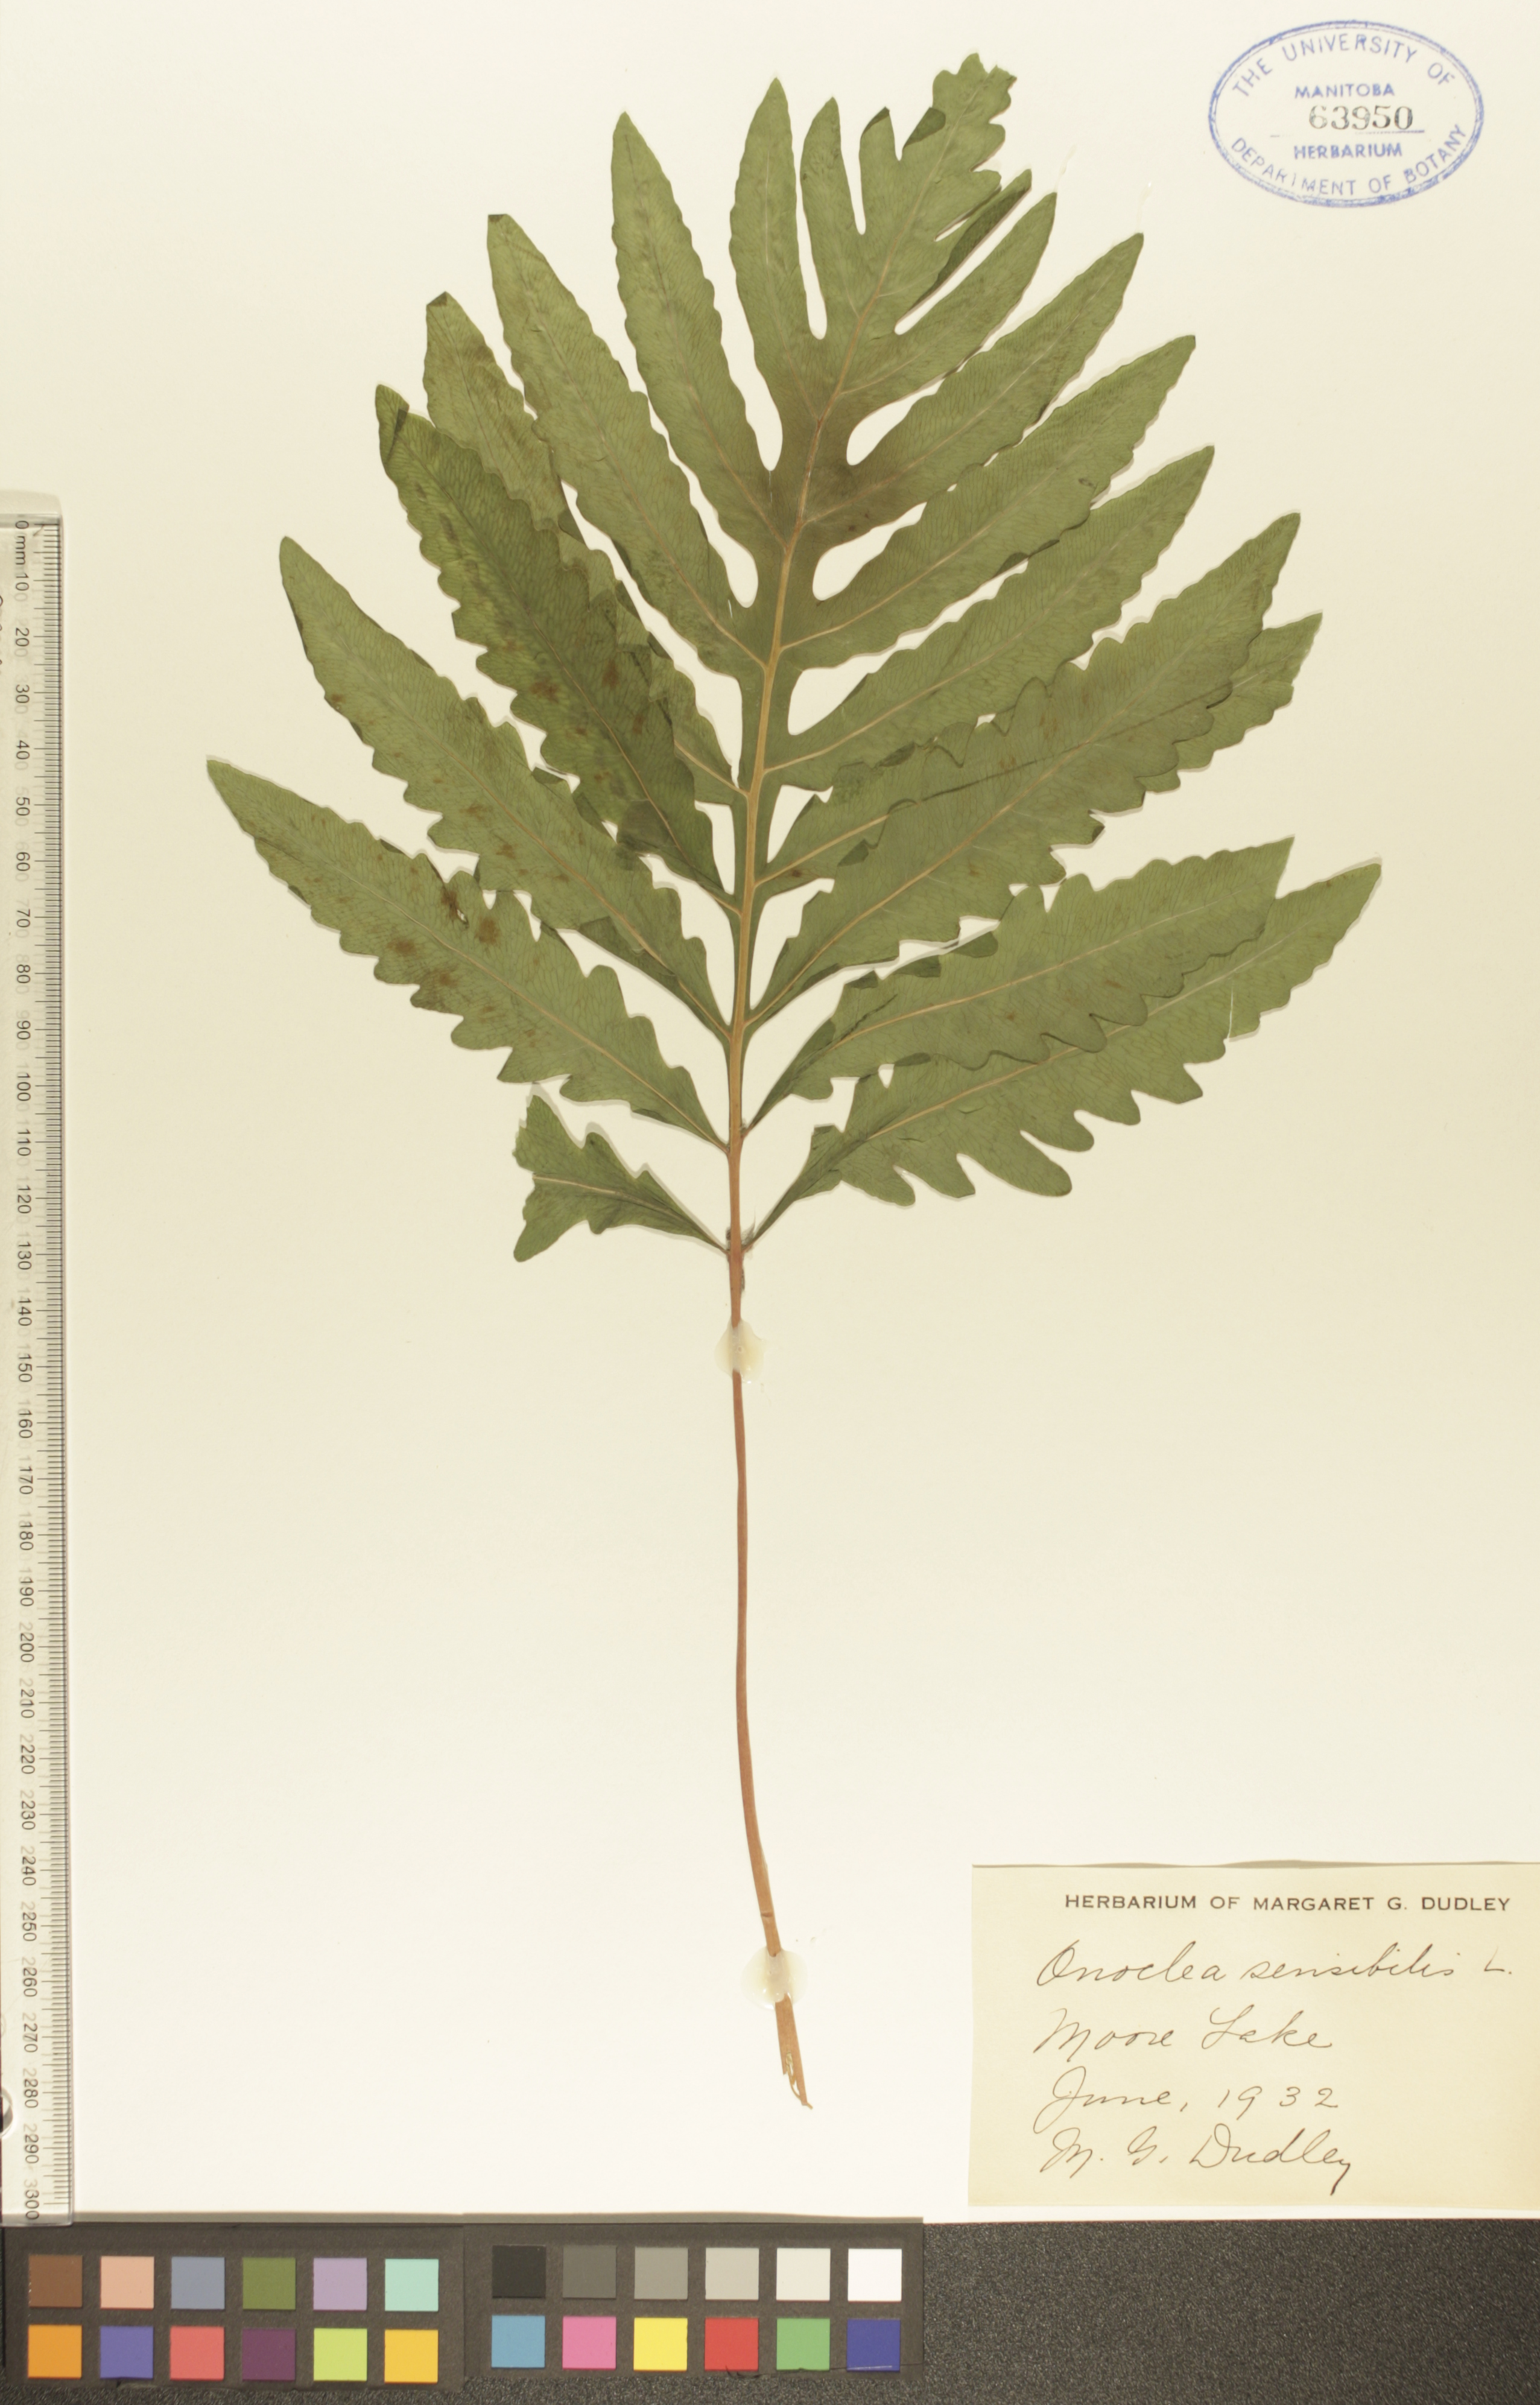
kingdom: Plantae
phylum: Tracheophyta
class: Polypodiopsida
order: Polypodiales
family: Onocleaceae
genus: Onoclea
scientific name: Onoclea sensibilis
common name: Sensitive fern
